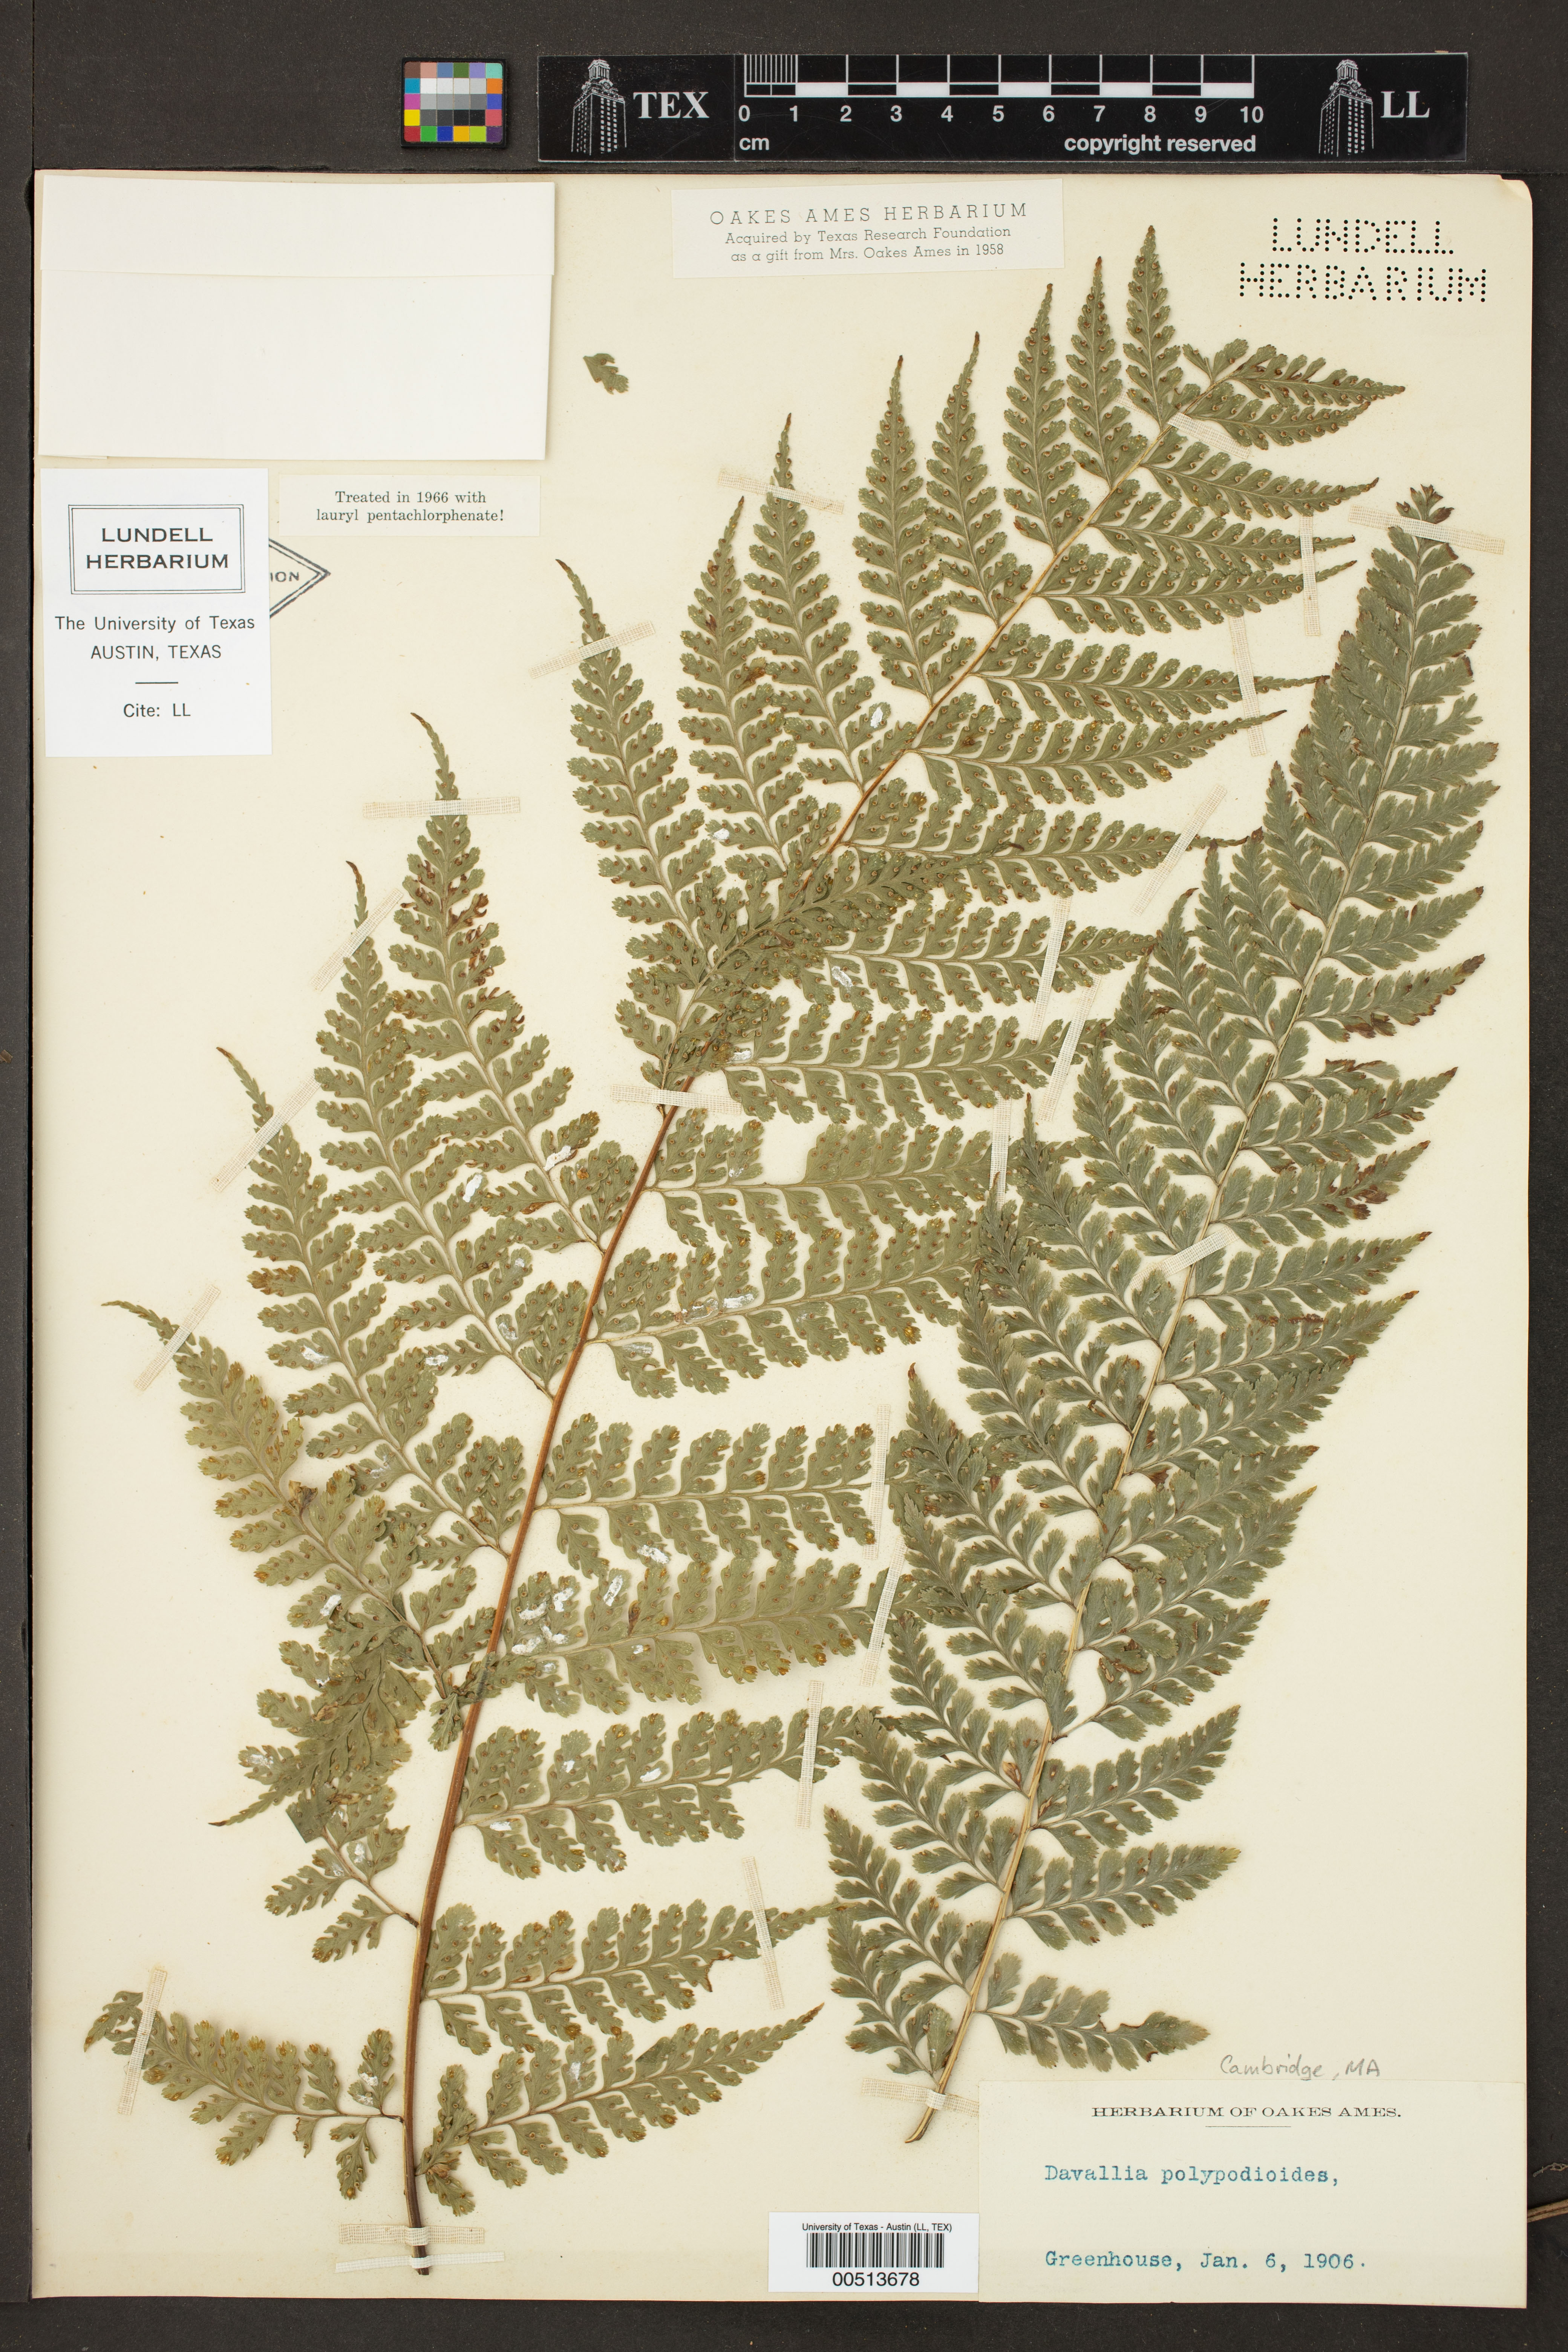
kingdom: Plantae
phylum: Tracheophyta
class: Polypodiopsida
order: Polypodiales
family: Dennstaedtiaceae
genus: Microlepia
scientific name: Microlepia
